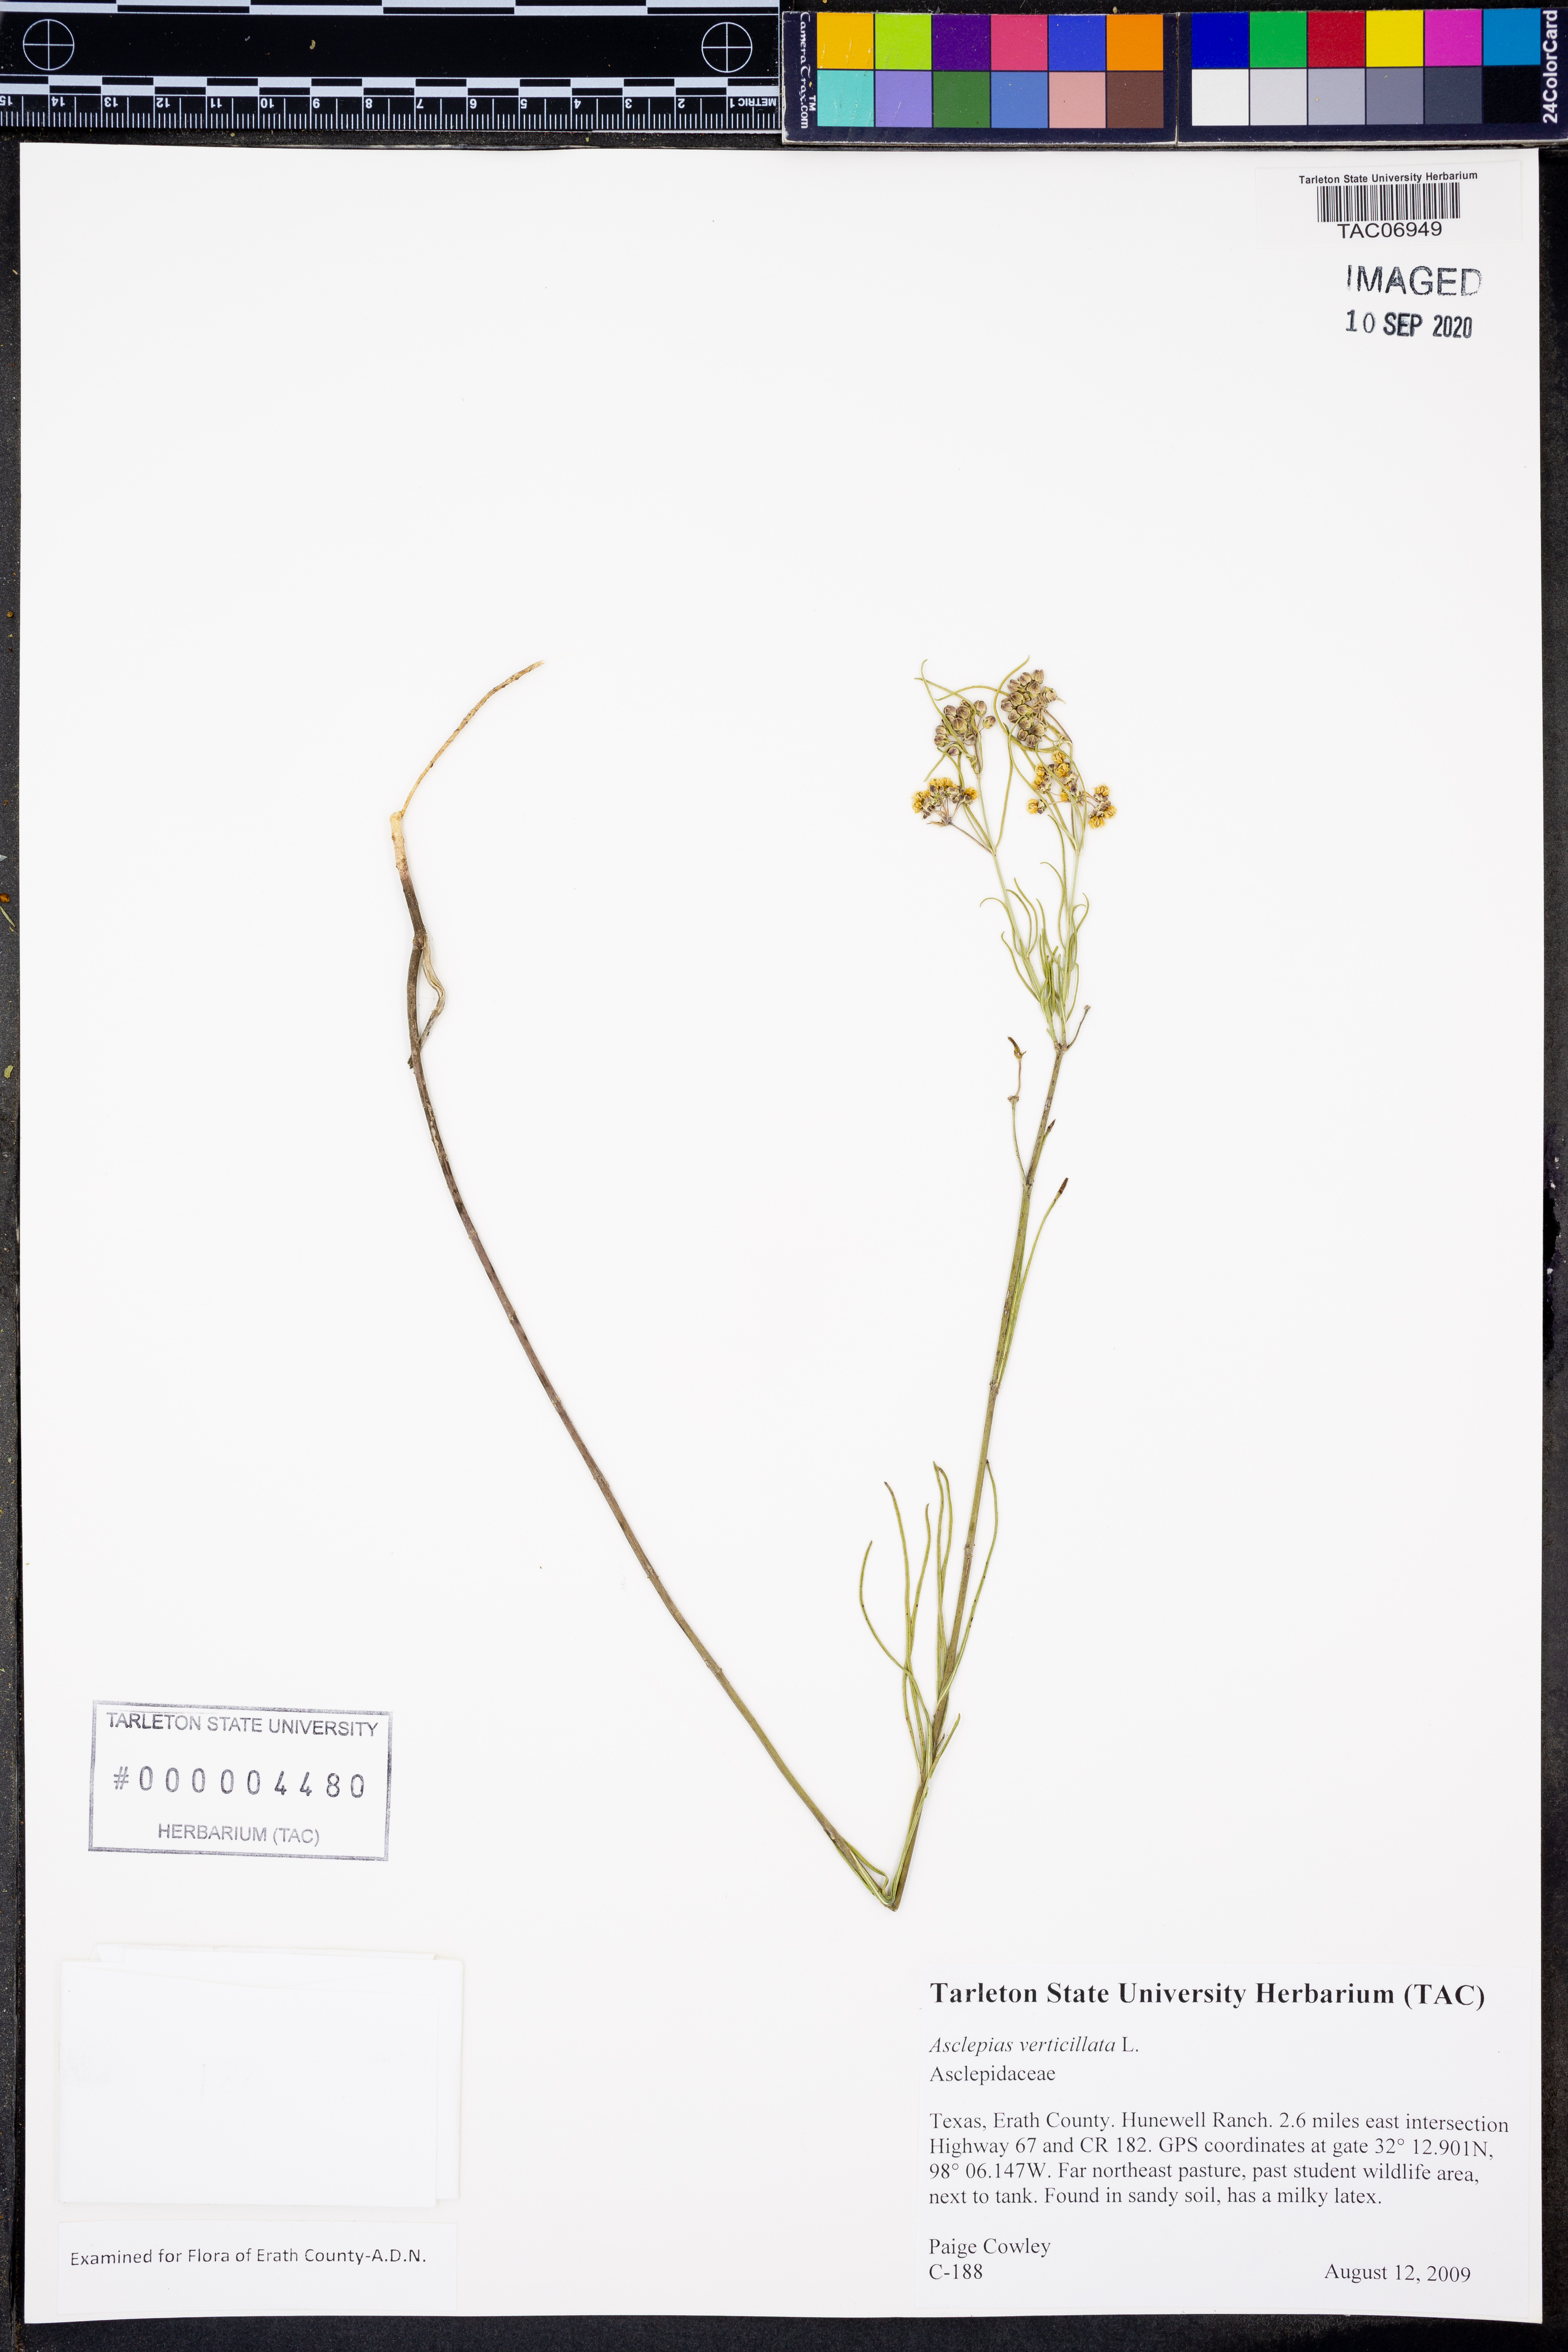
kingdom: Plantae
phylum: Tracheophyta
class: Magnoliopsida
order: Gentianales
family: Apocynaceae
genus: Asclepias
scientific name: Asclepias viridis
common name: Antelope-horns
